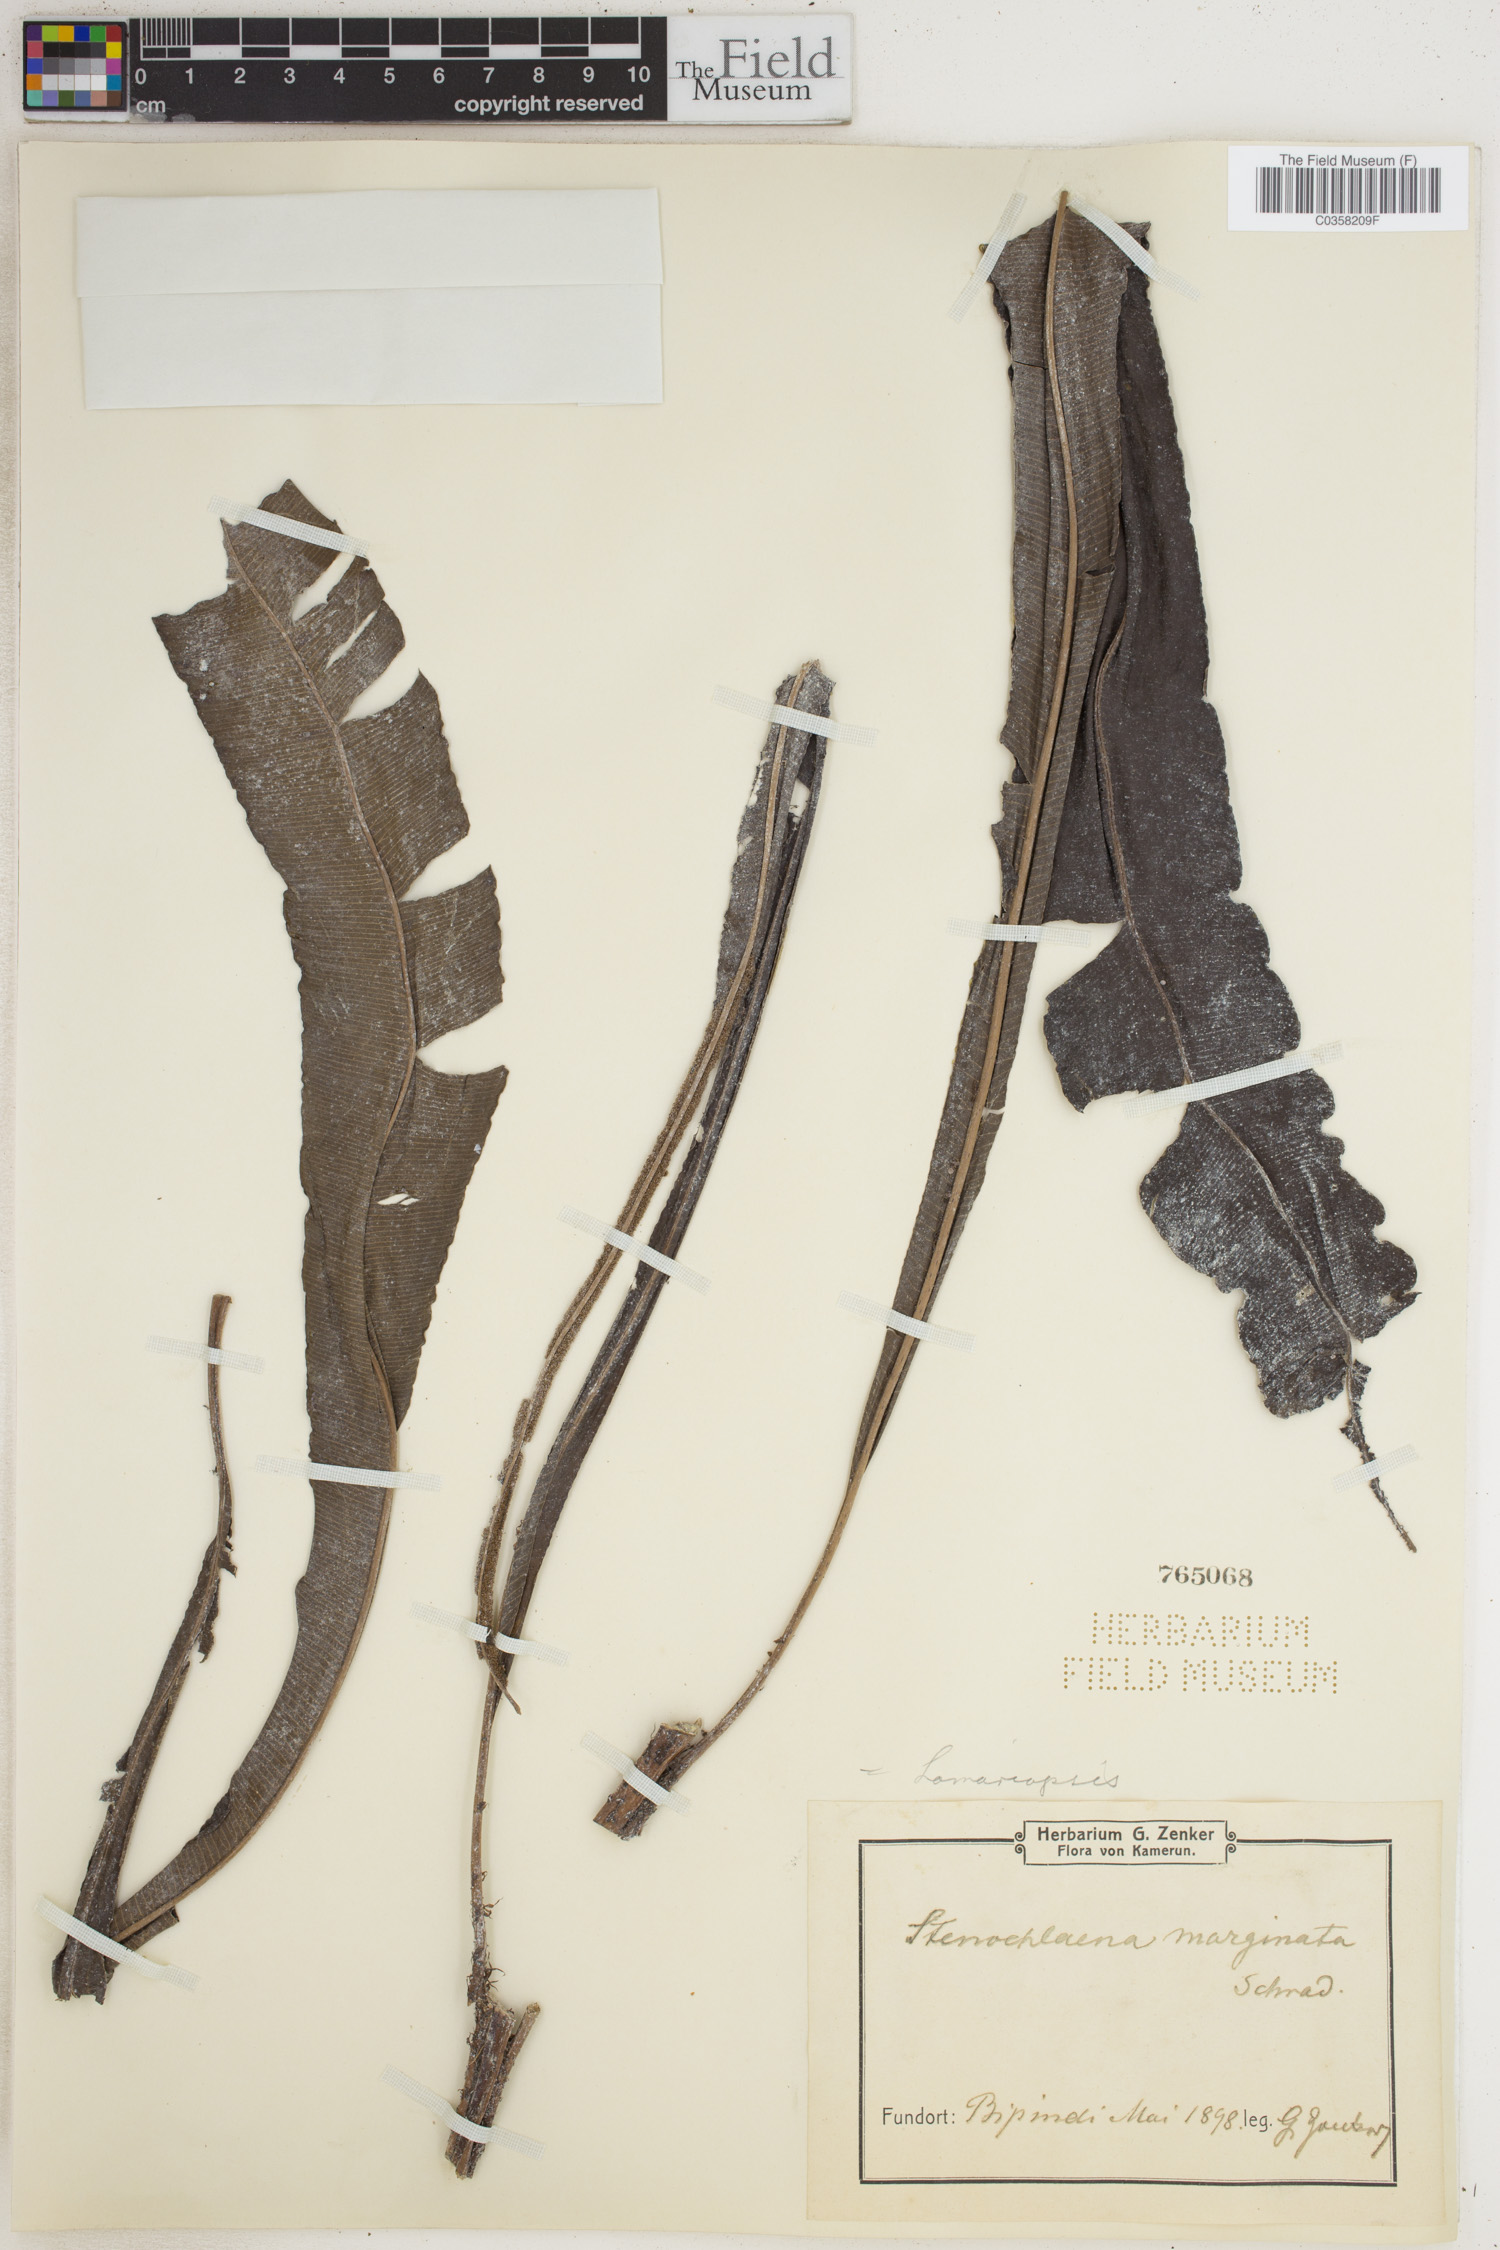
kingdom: Plantae
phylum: Tracheophyta
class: Polypodiopsida
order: Polypodiales
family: Lomariopsidaceae
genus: Lomariopsis
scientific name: Lomariopsis marginata
